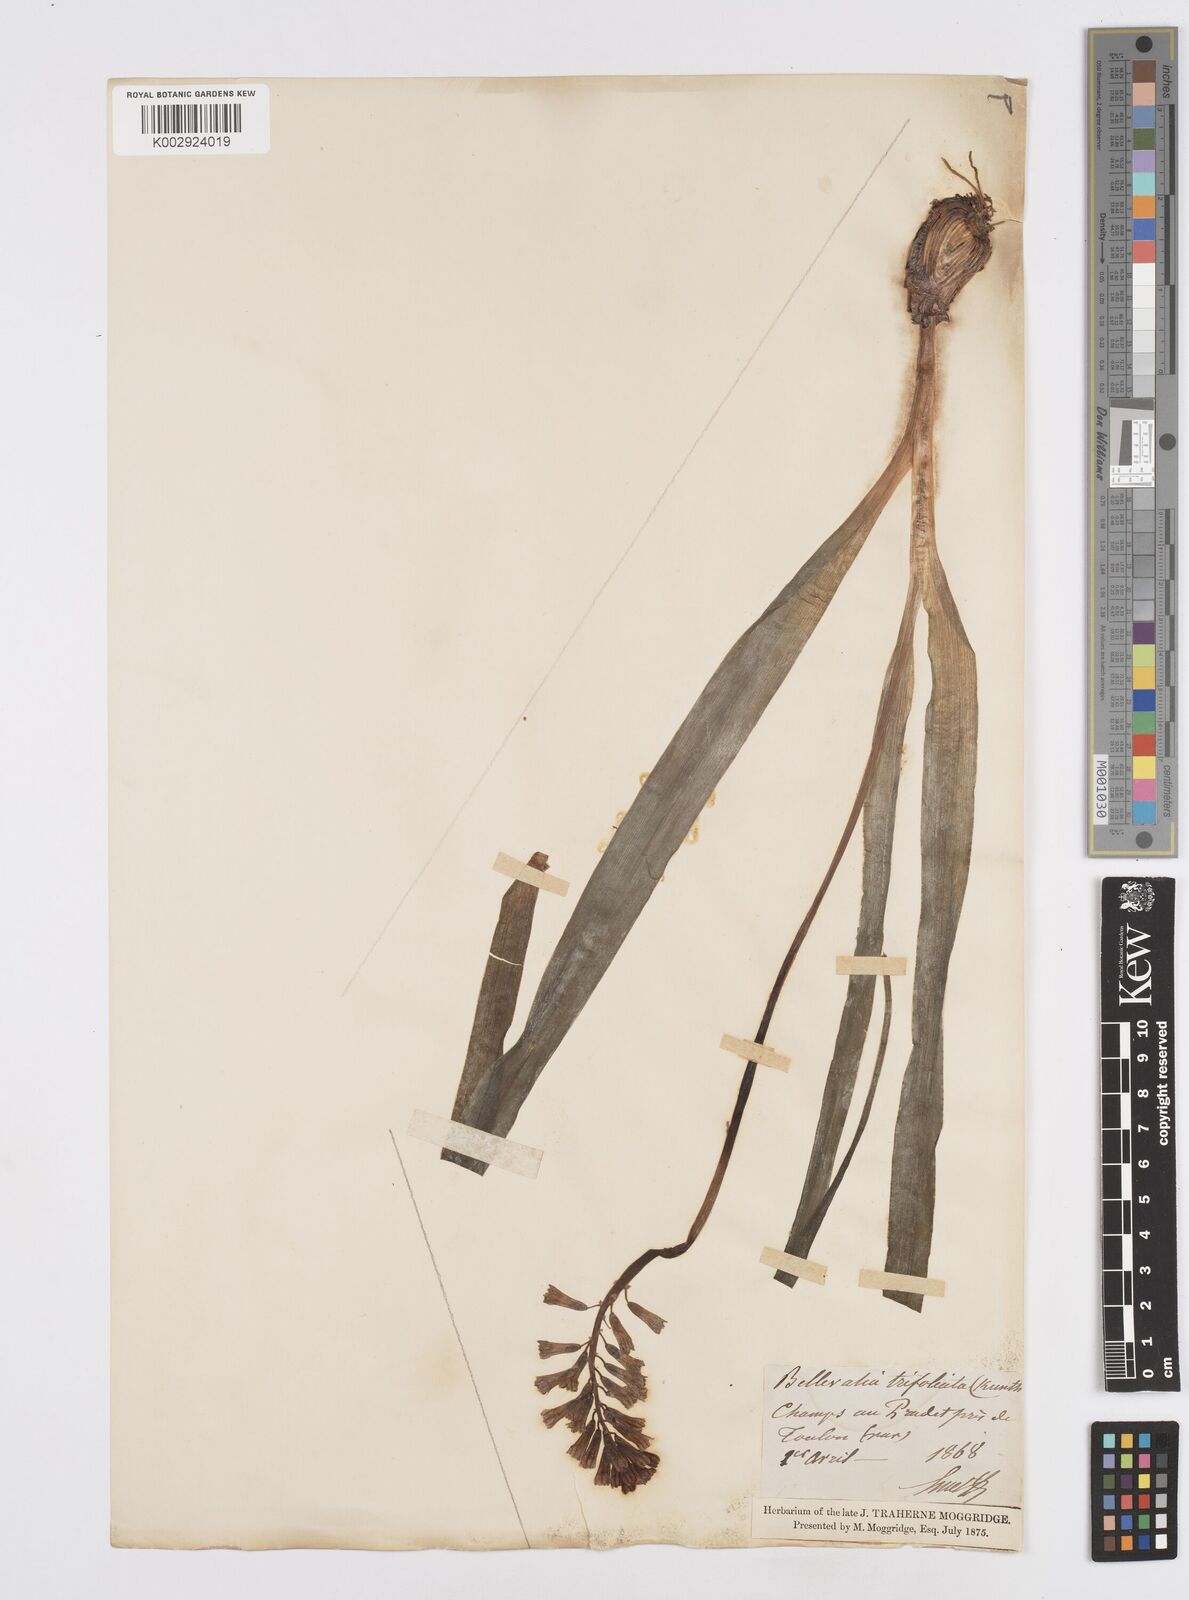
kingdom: Plantae
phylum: Tracheophyta
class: Liliopsida
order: Asparagales
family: Asparagaceae
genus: Bellevalia
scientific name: Bellevalia trifoliata
